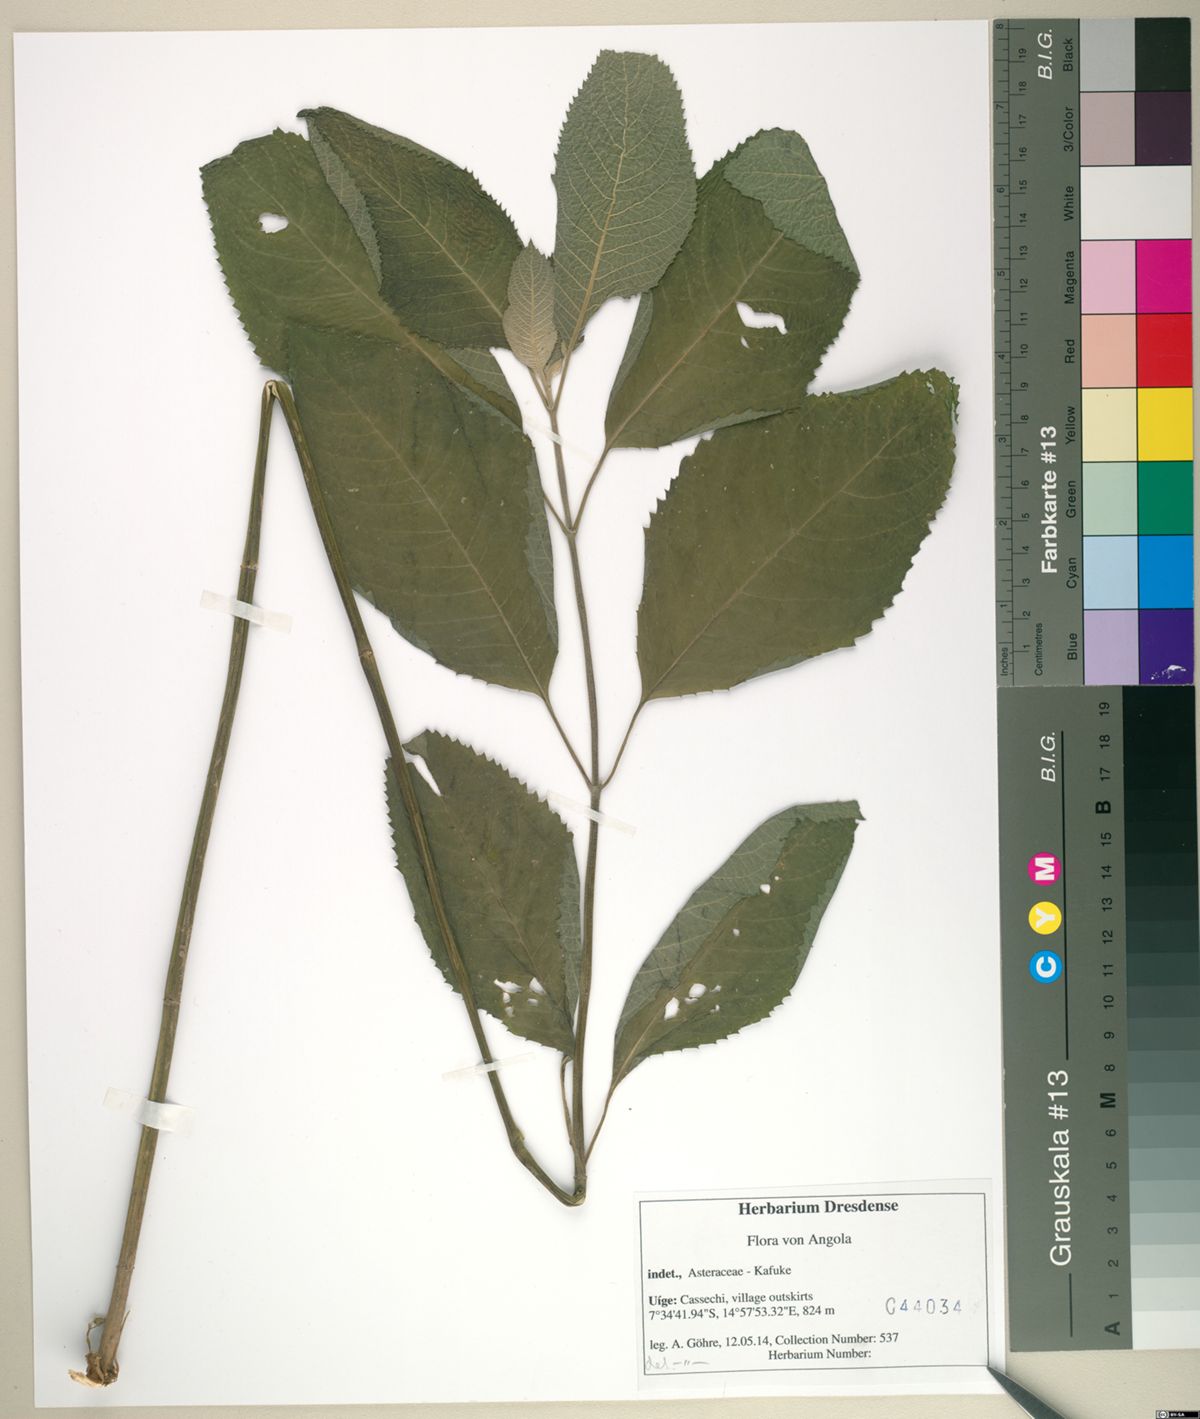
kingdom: Plantae
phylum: Tracheophyta
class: Magnoliopsida
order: Asterales
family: Asteraceae
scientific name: Asteraceae
